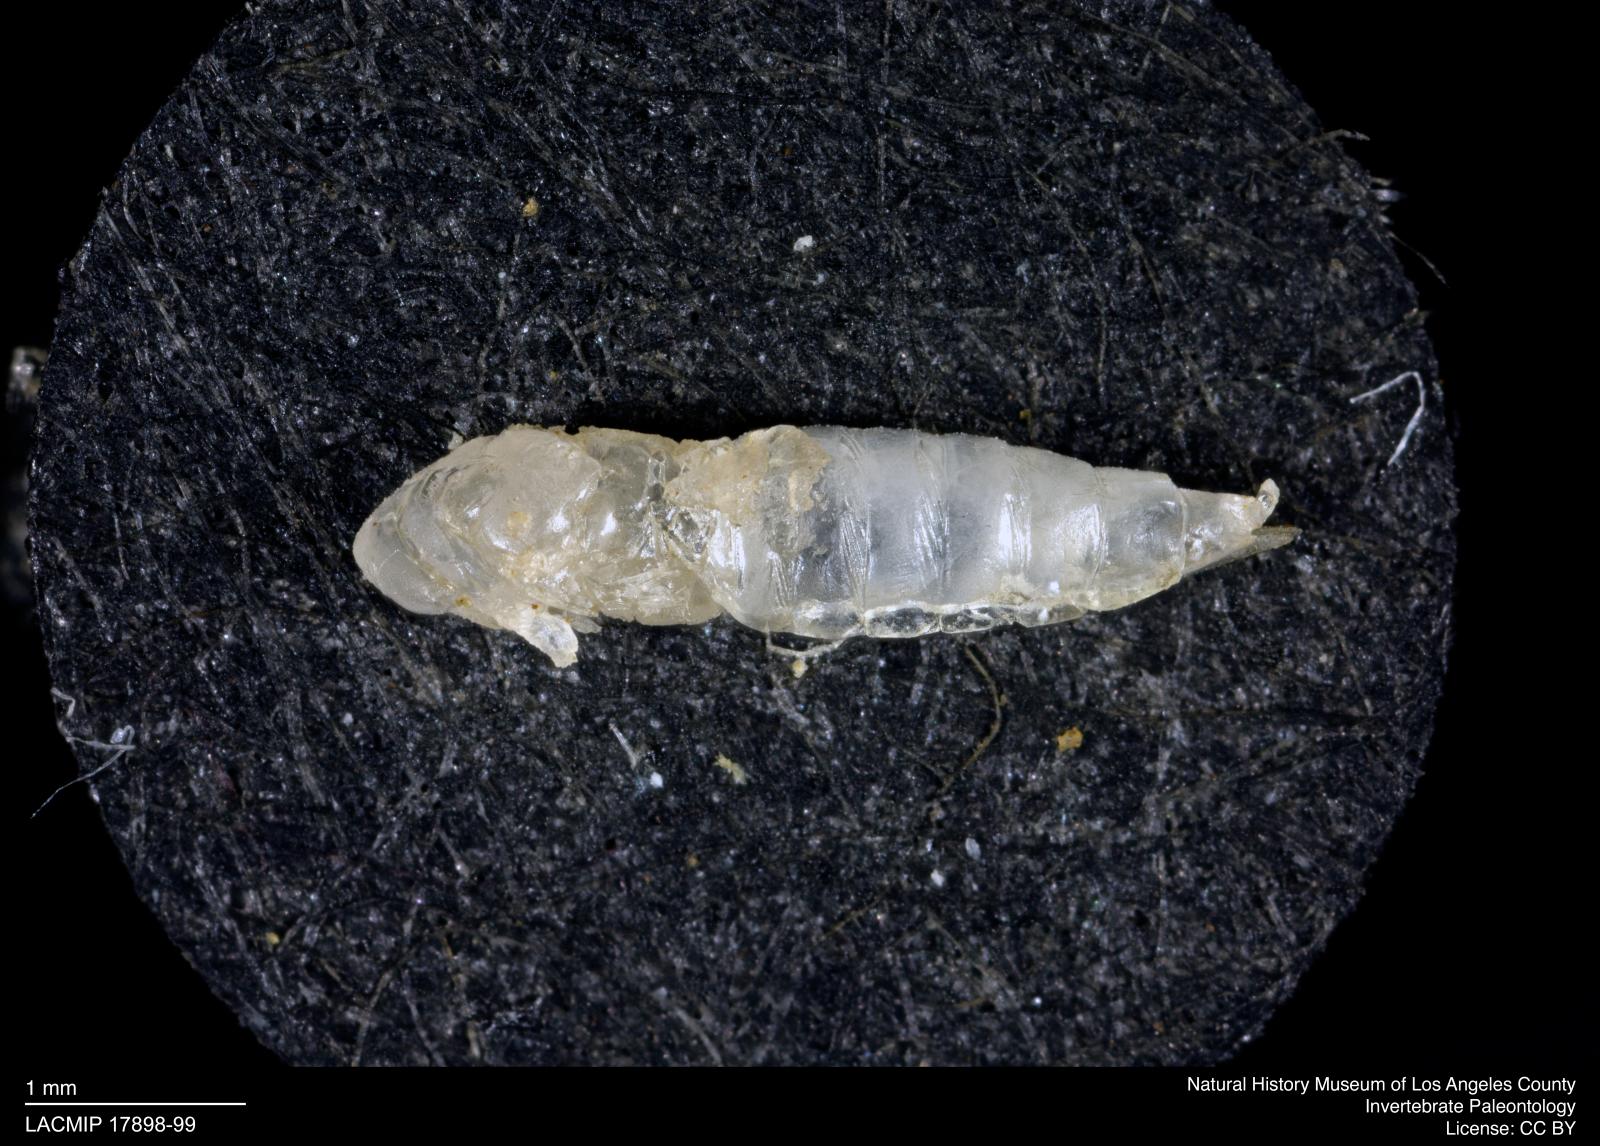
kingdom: Animalia
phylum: Arthropoda
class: Insecta
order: Hemiptera
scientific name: Hemiptera
